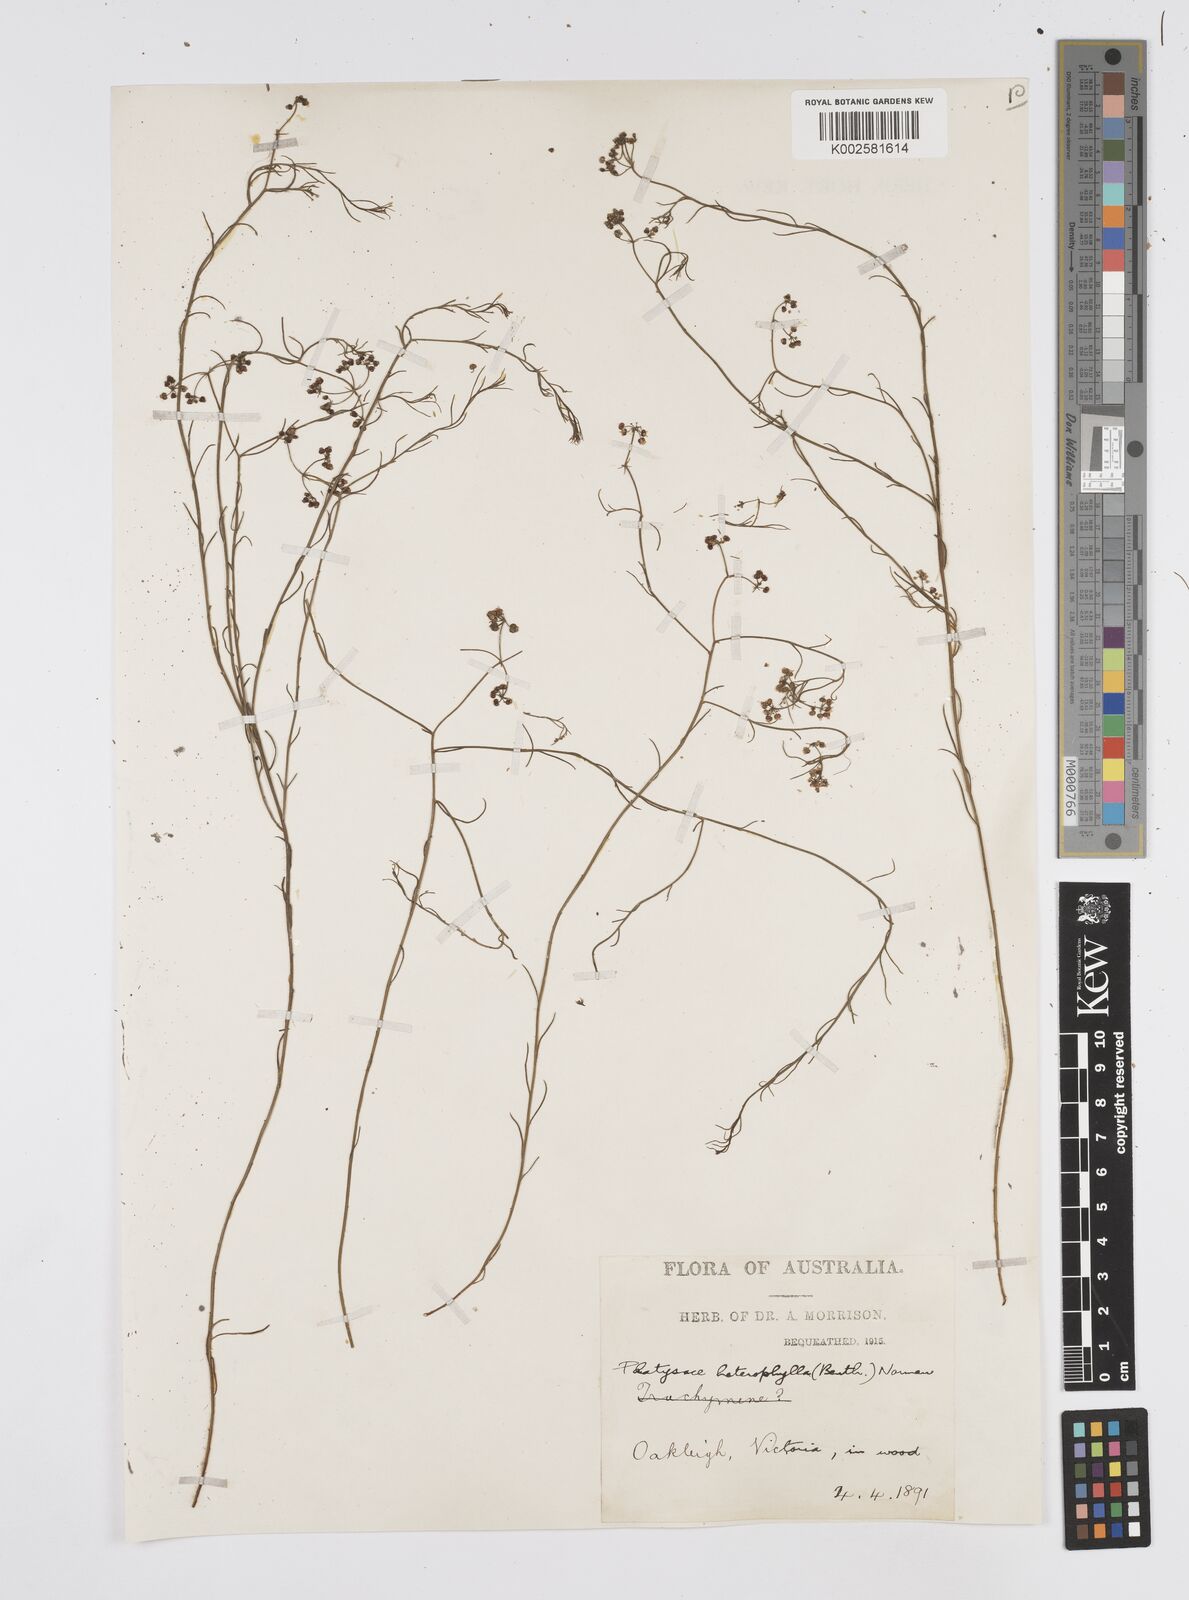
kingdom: Plantae
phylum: Tracheophyta
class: Magnoliopsida
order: Apiales
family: Apiaceae
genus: Platysace
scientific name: Platysace heterophylla
